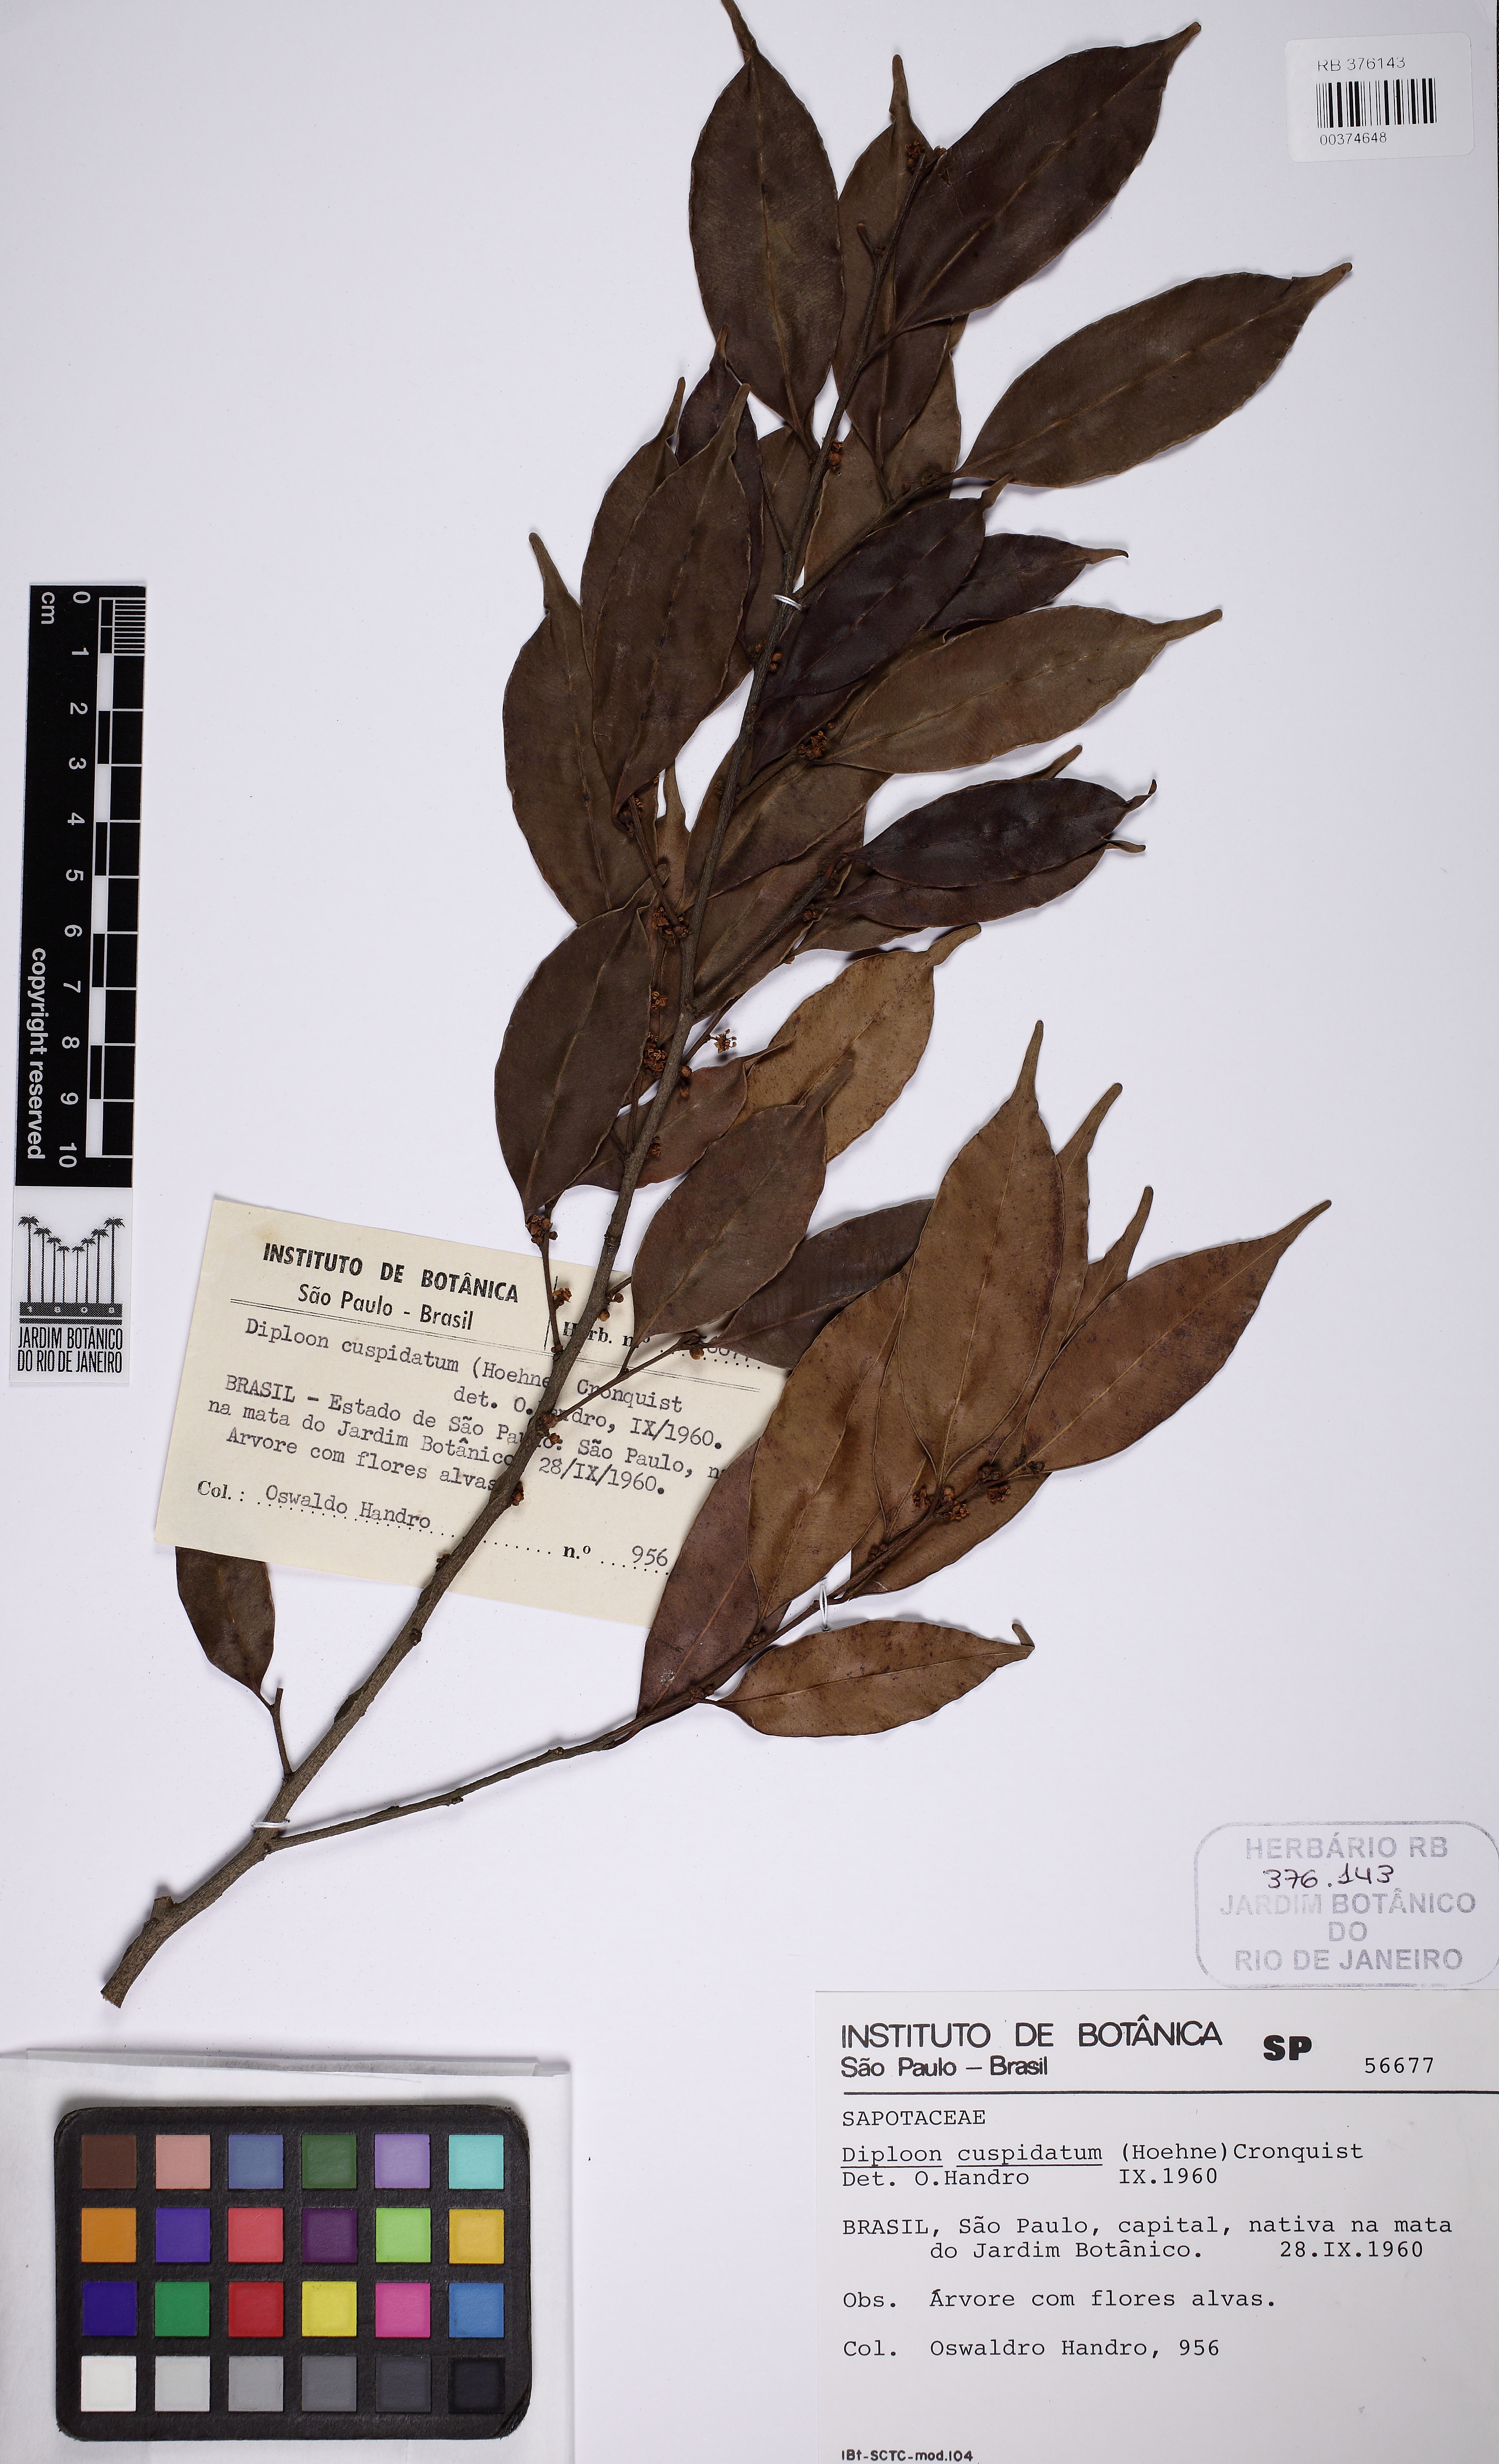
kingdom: Plantae
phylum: Tracheophyta
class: Magnoliopsida
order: Ericales
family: Sapotaceae
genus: Diploon
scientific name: Diploon cuspidatum
